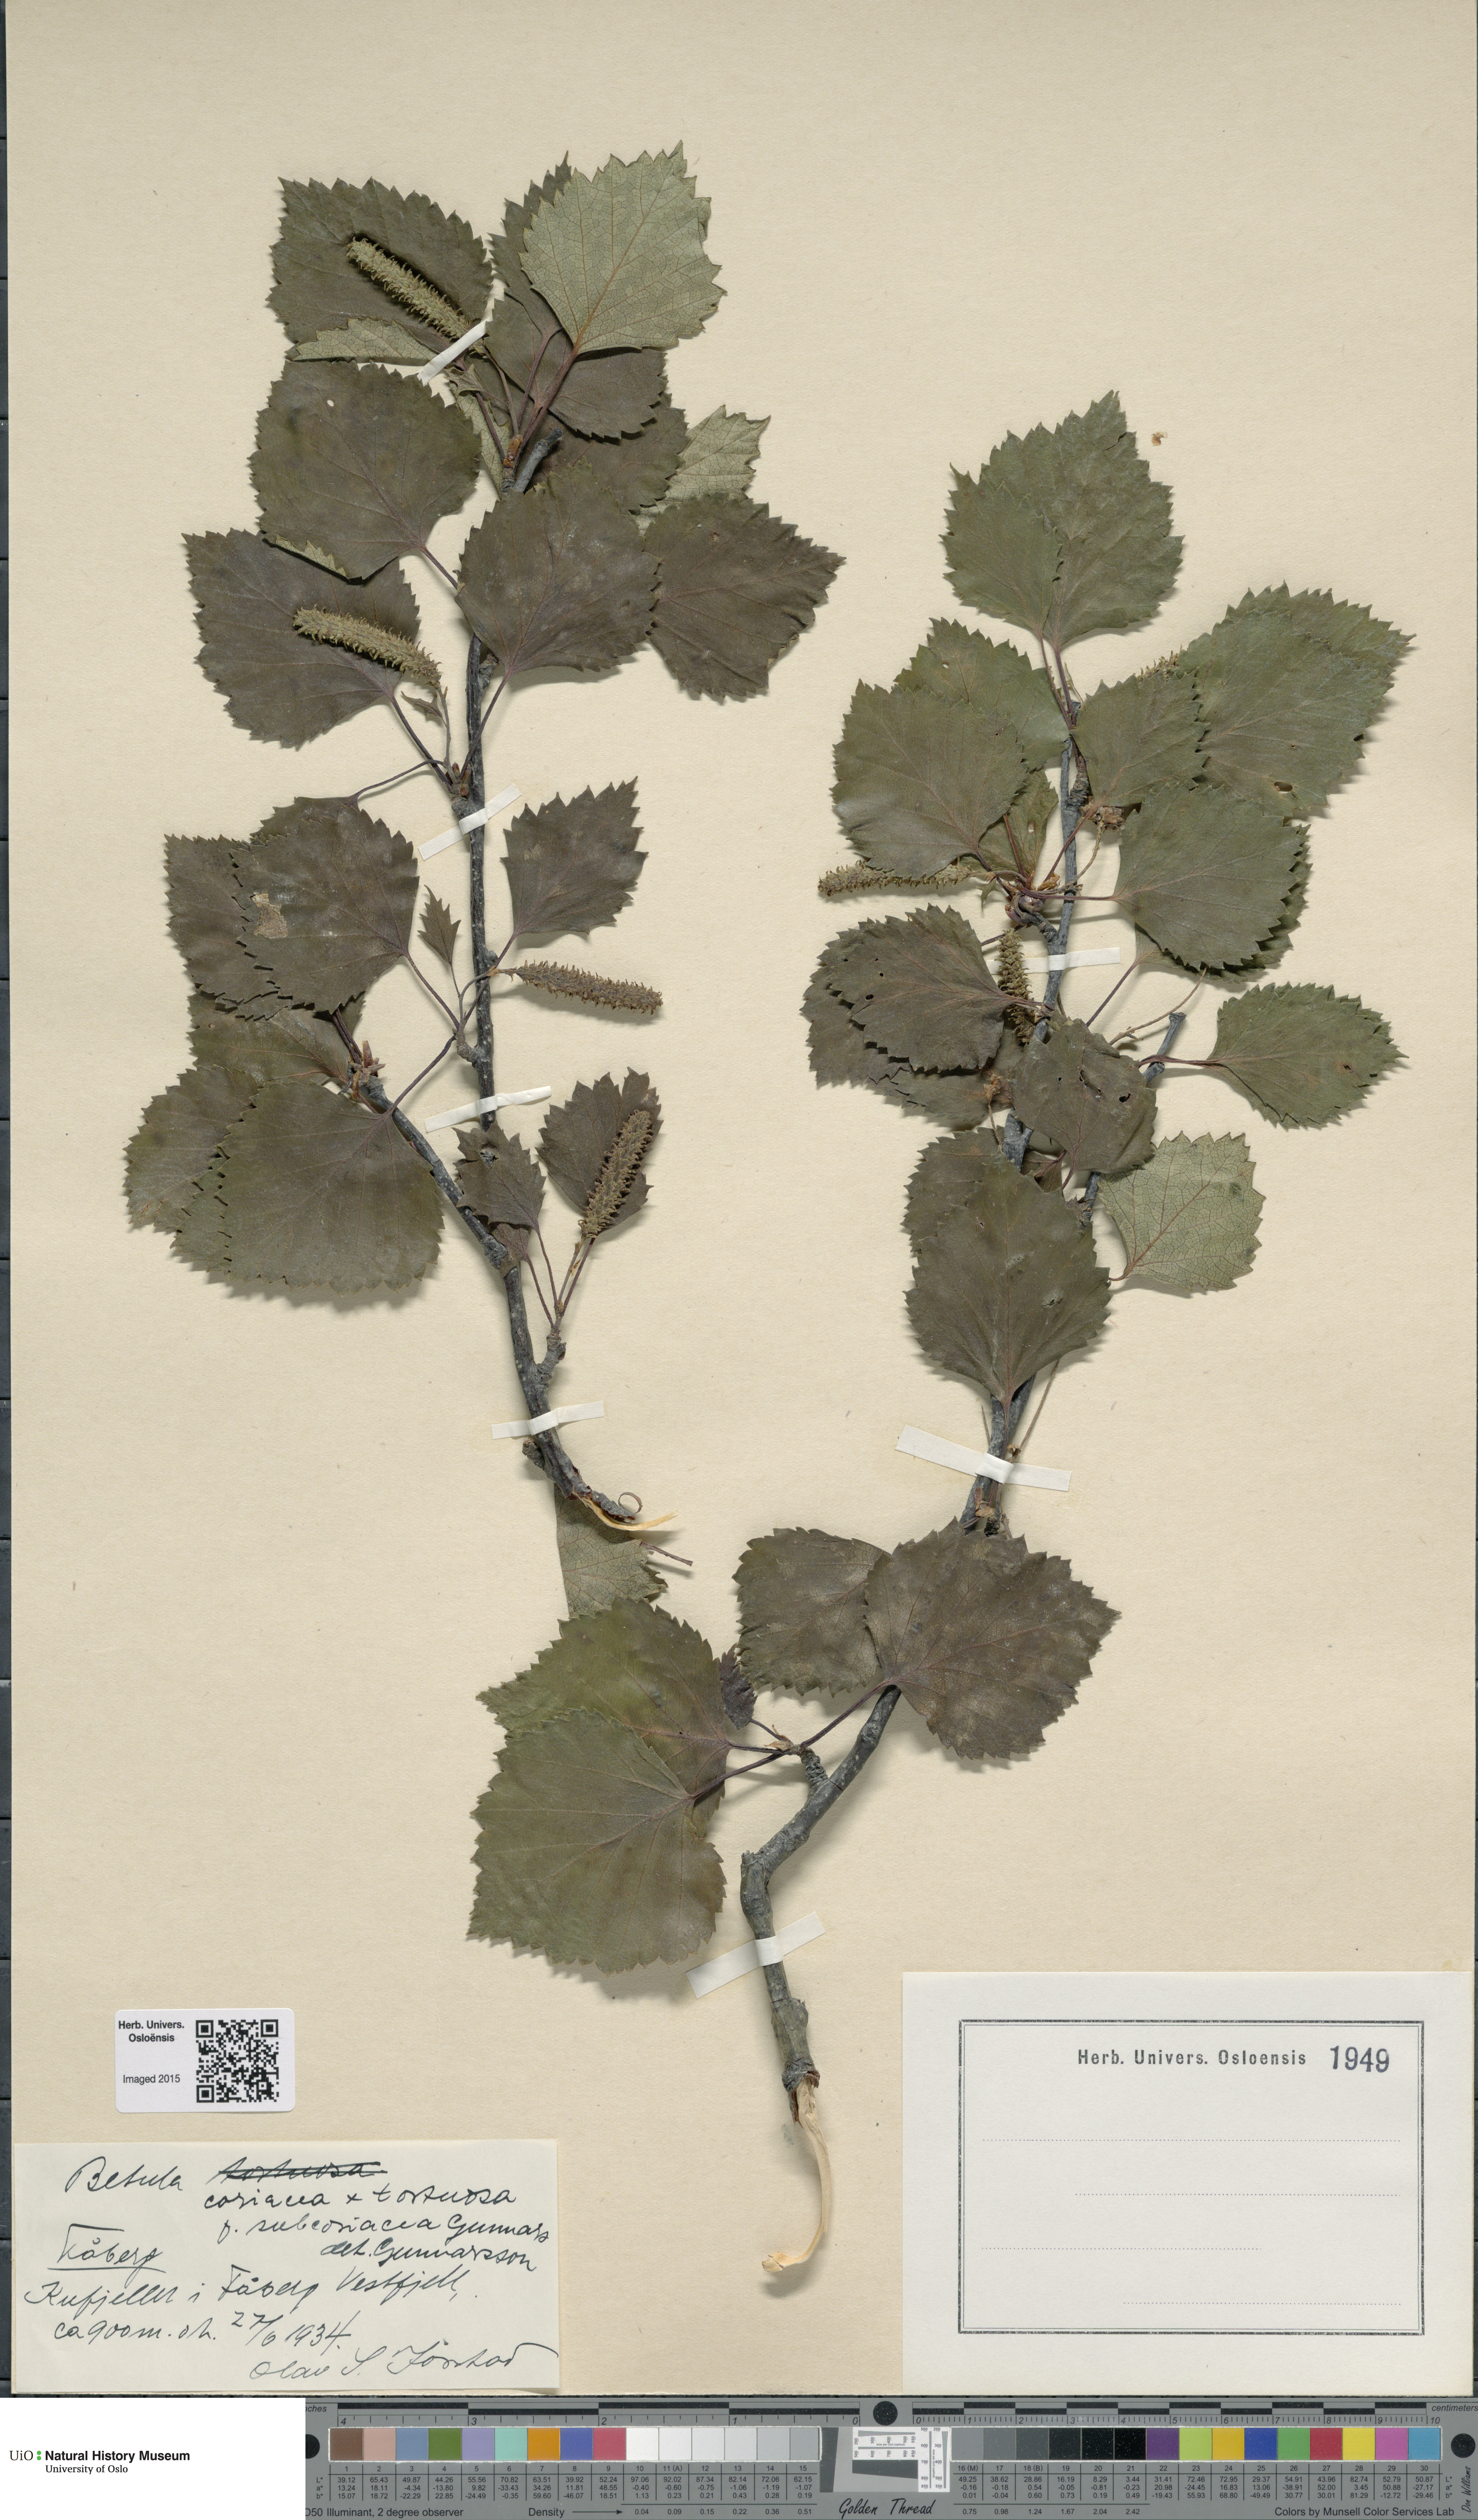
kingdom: Plantae
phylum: Tracheophyta
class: Magnoliopsida
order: Fagales
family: Betulaceae
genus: Betula
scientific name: Betula pubescens
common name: Downy birch
